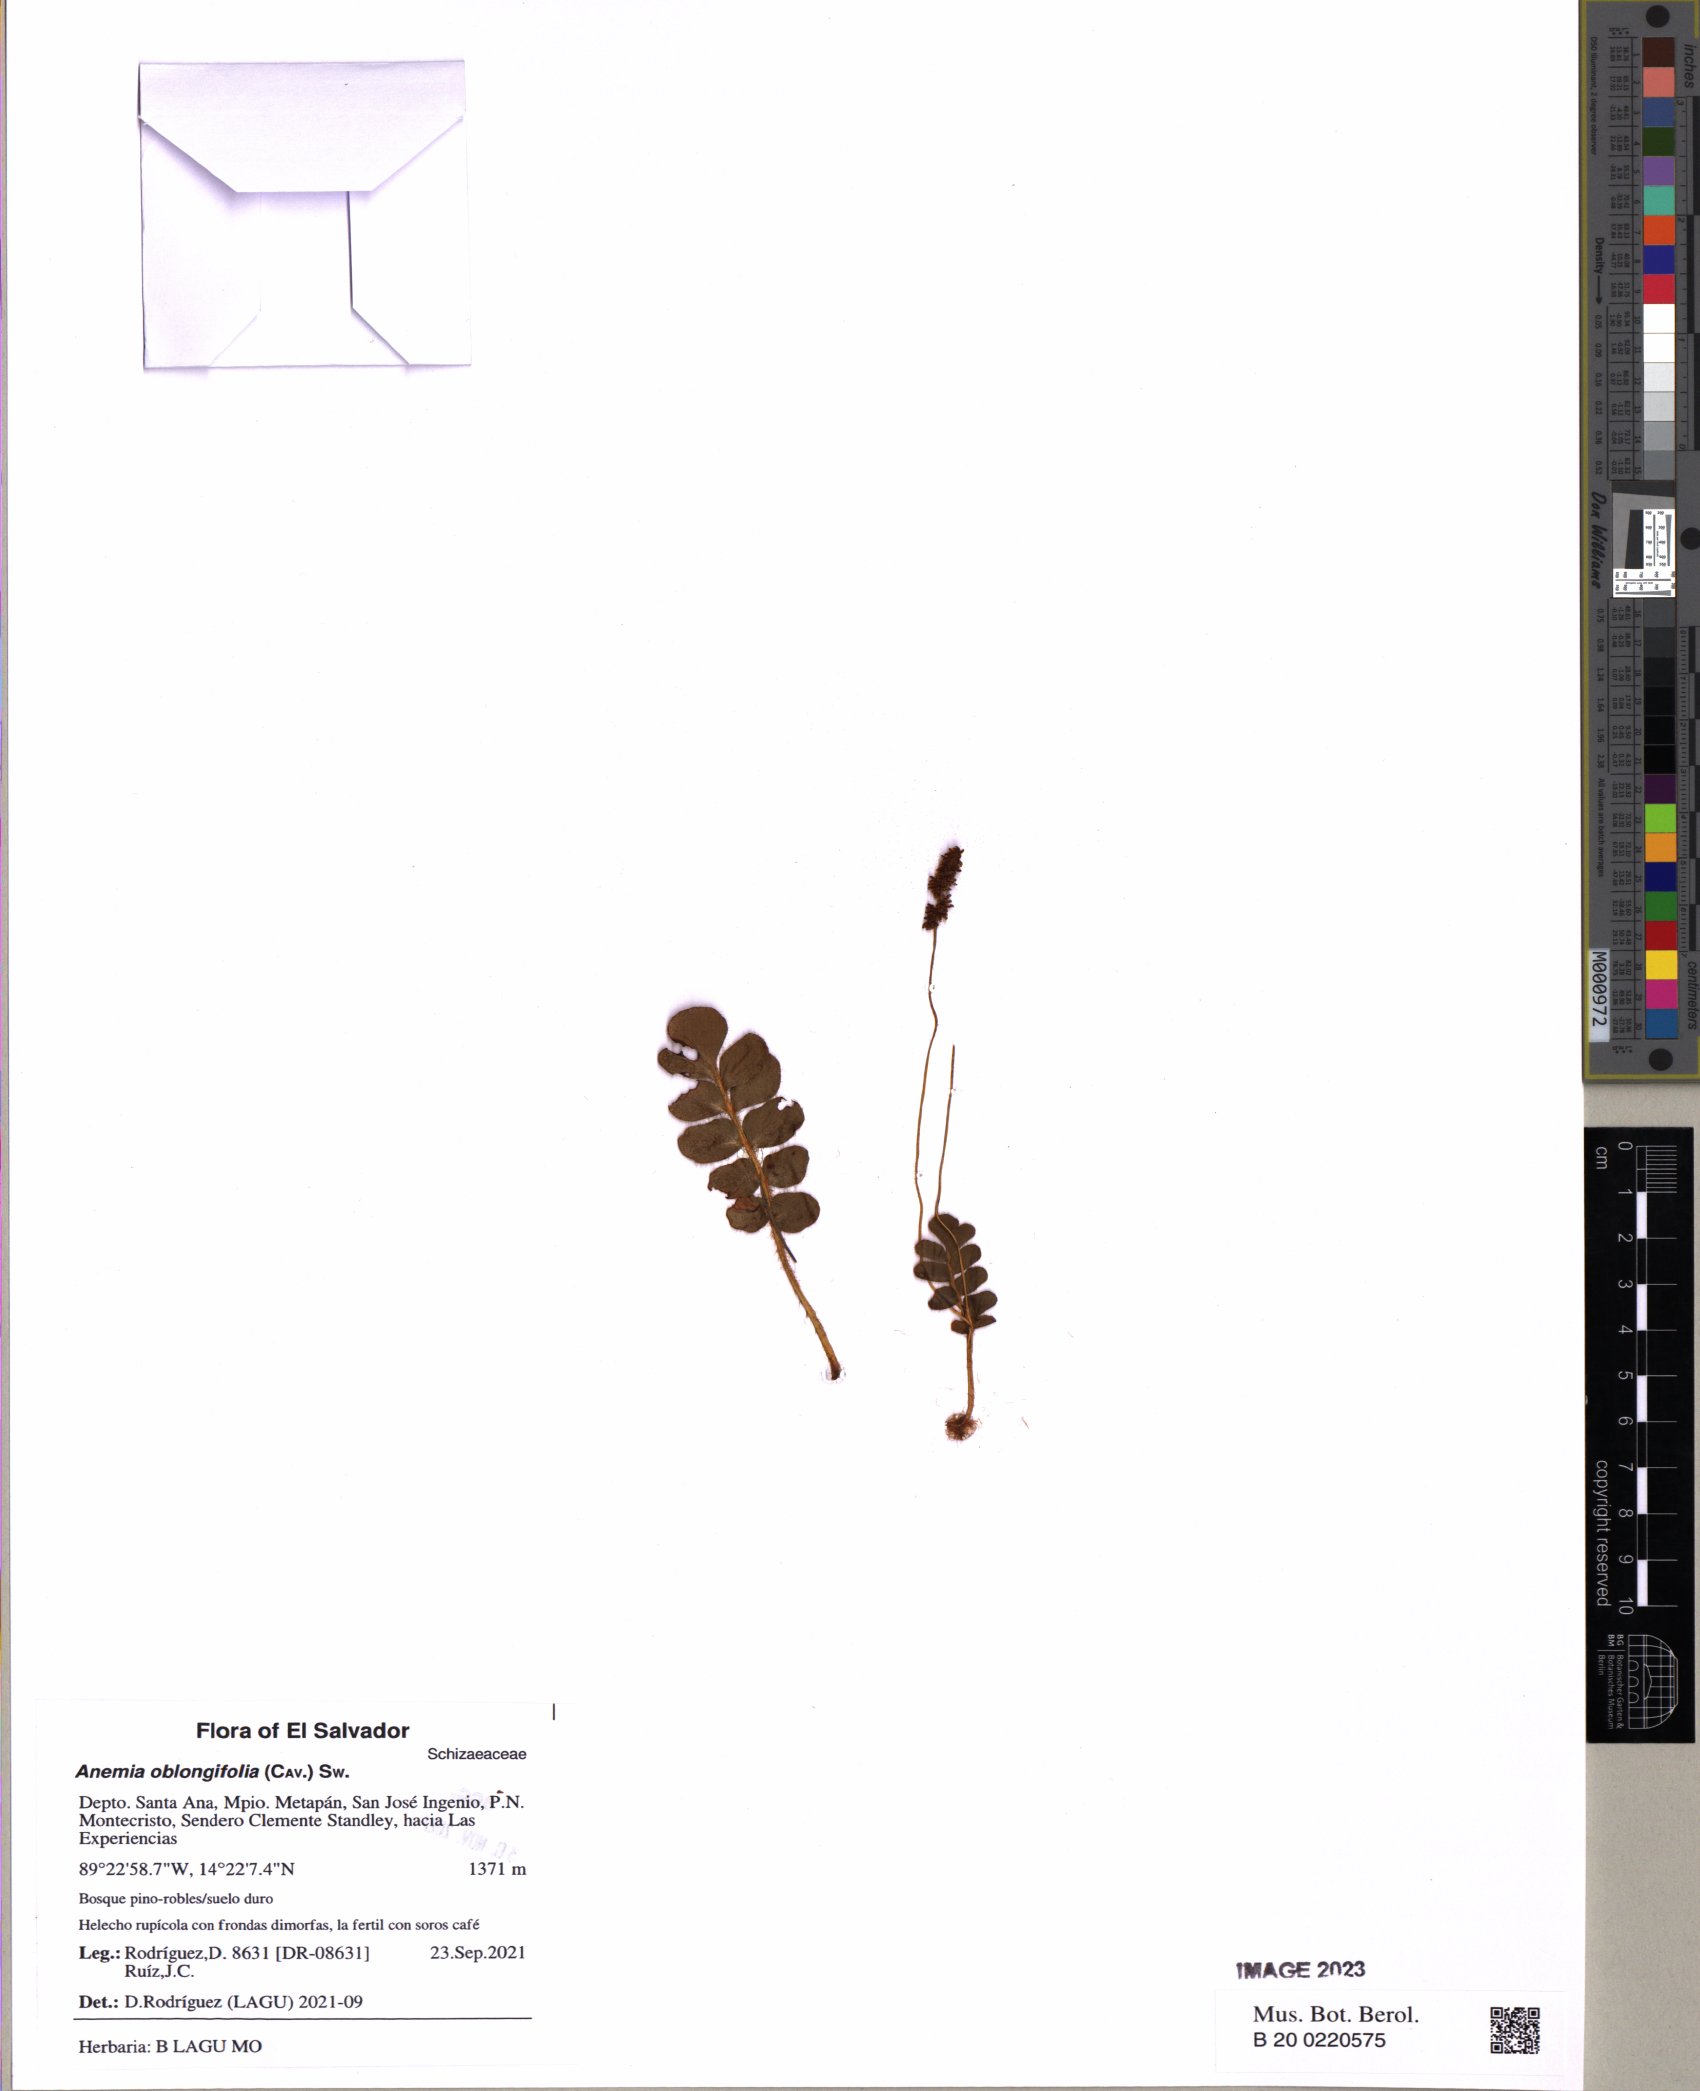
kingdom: Plantae
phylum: Tracheophyta
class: Polypodiopsida
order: Schizaeales
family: Anemiaceae
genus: Anemia
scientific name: Anemia oblongifolia
